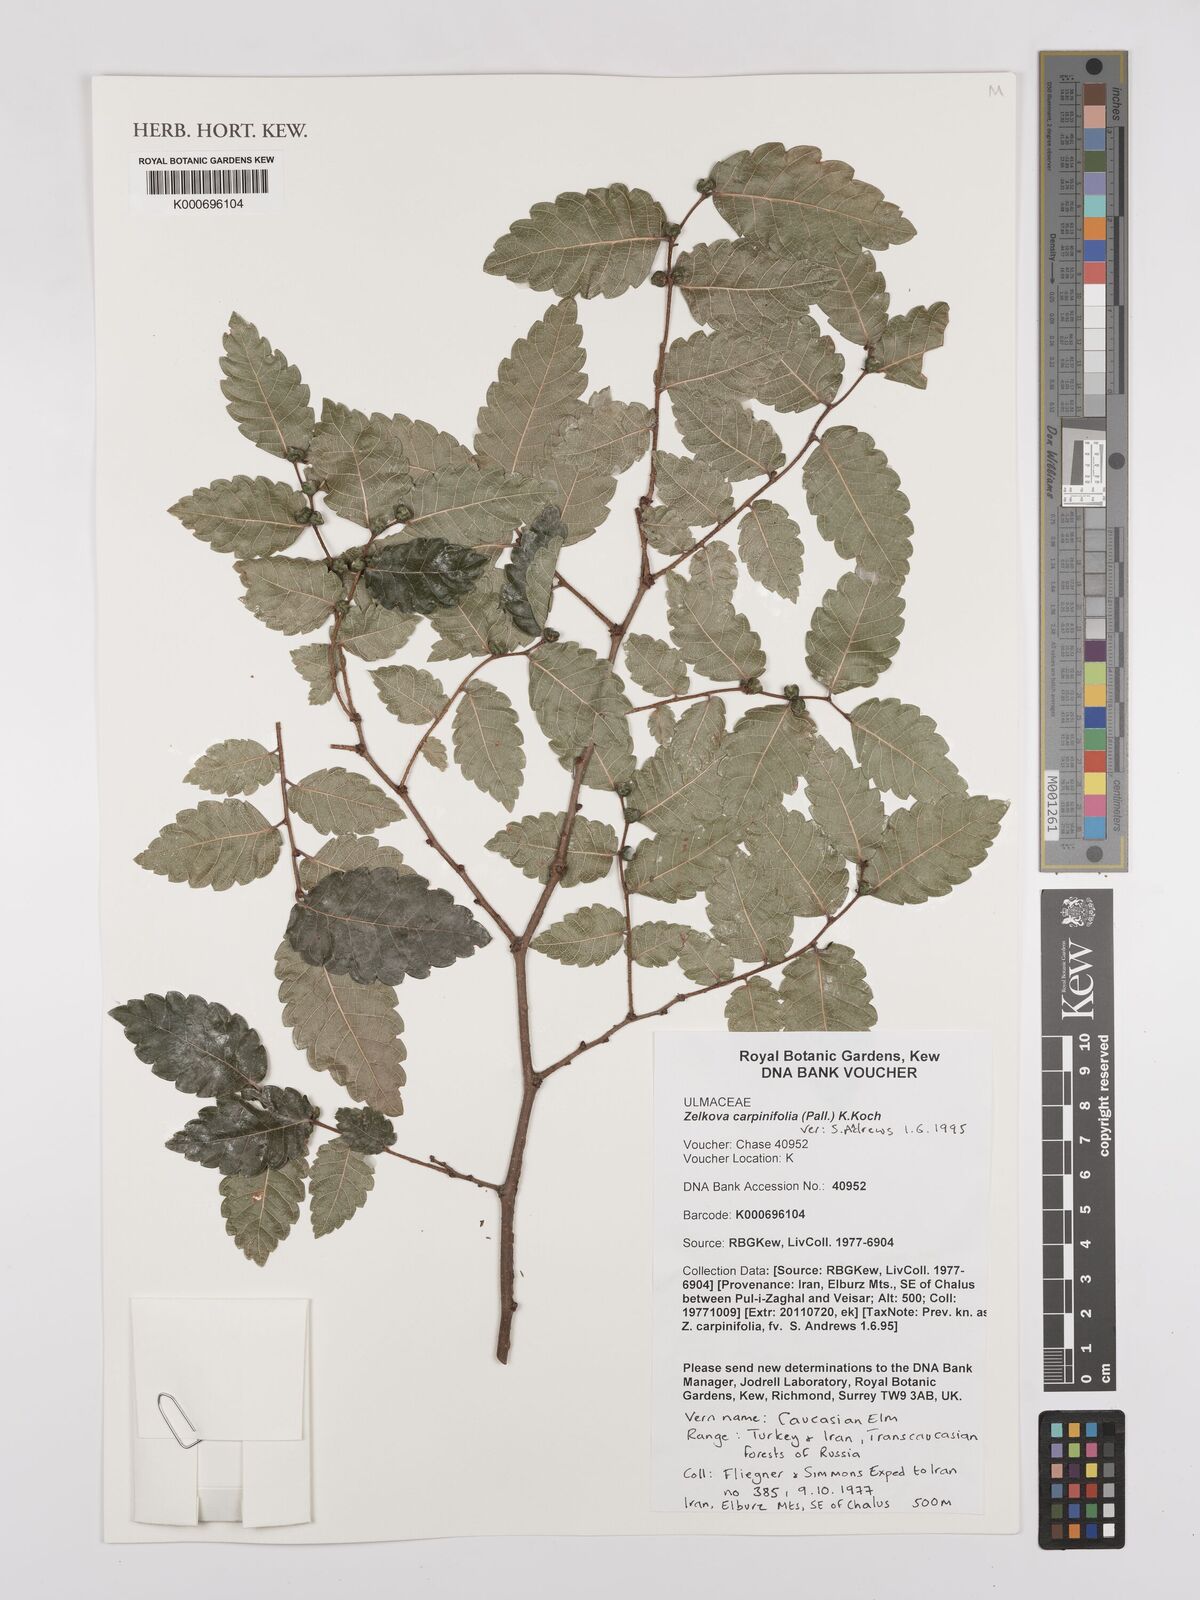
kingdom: Plantae
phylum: Tracheophyta
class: Magnoliopsida
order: Rosales
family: Ulmaceae
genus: Zelkova
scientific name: Zelkova carpinifolia
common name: Caucasian elm
